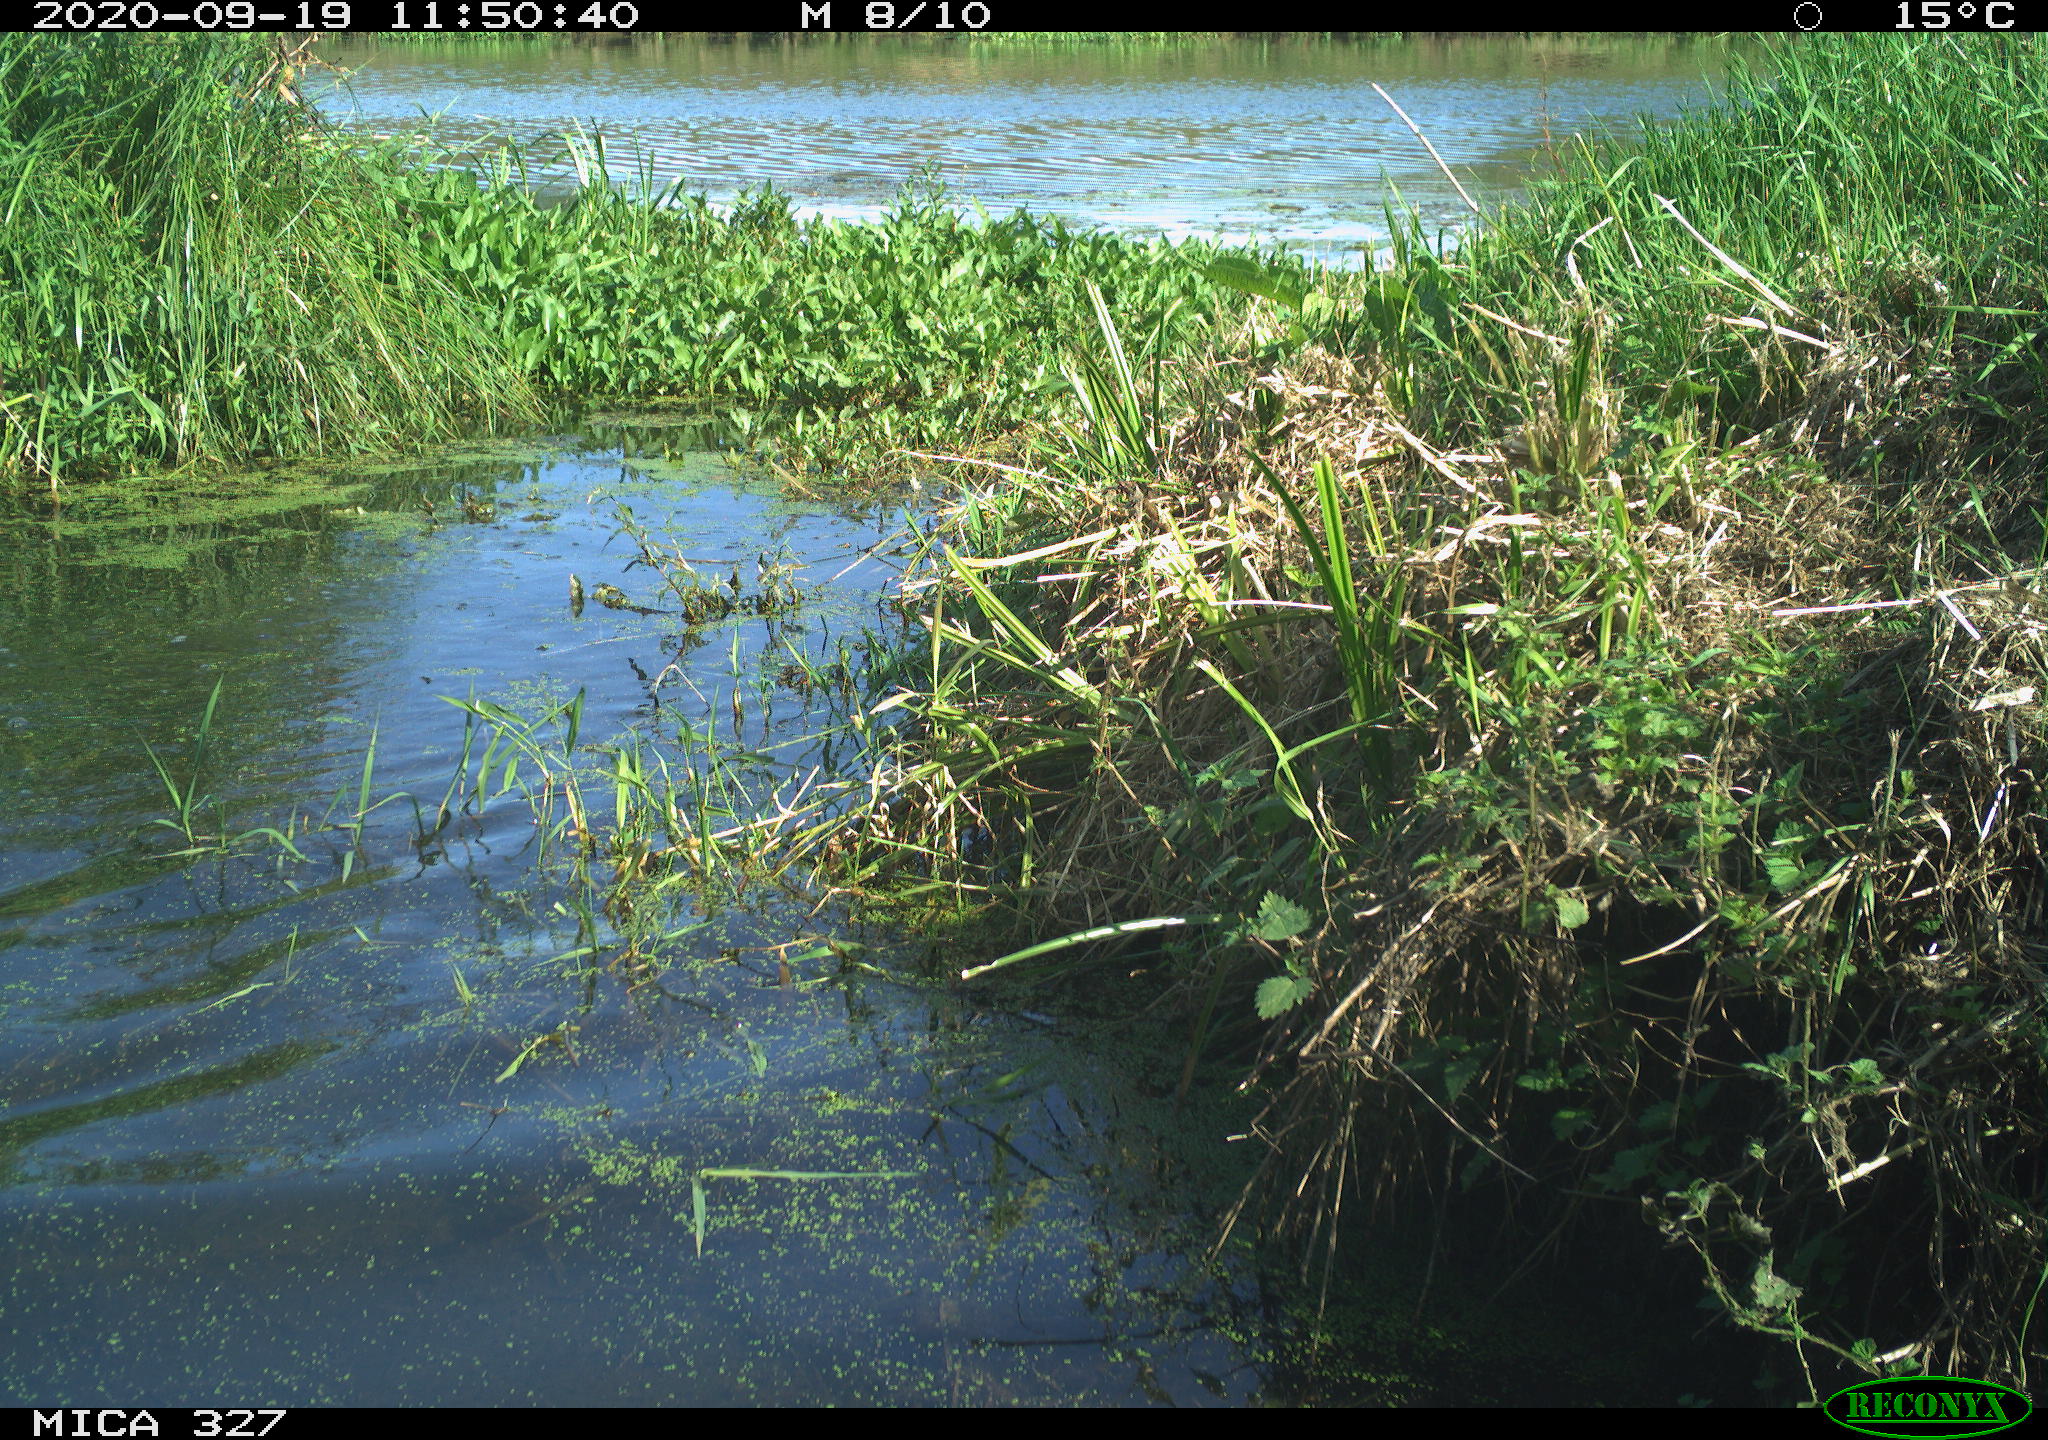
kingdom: Animalia
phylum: Chordata
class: Mammalia
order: Carnivora
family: Canidae
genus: Canis
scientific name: Canis lupus
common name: Gray wolf
